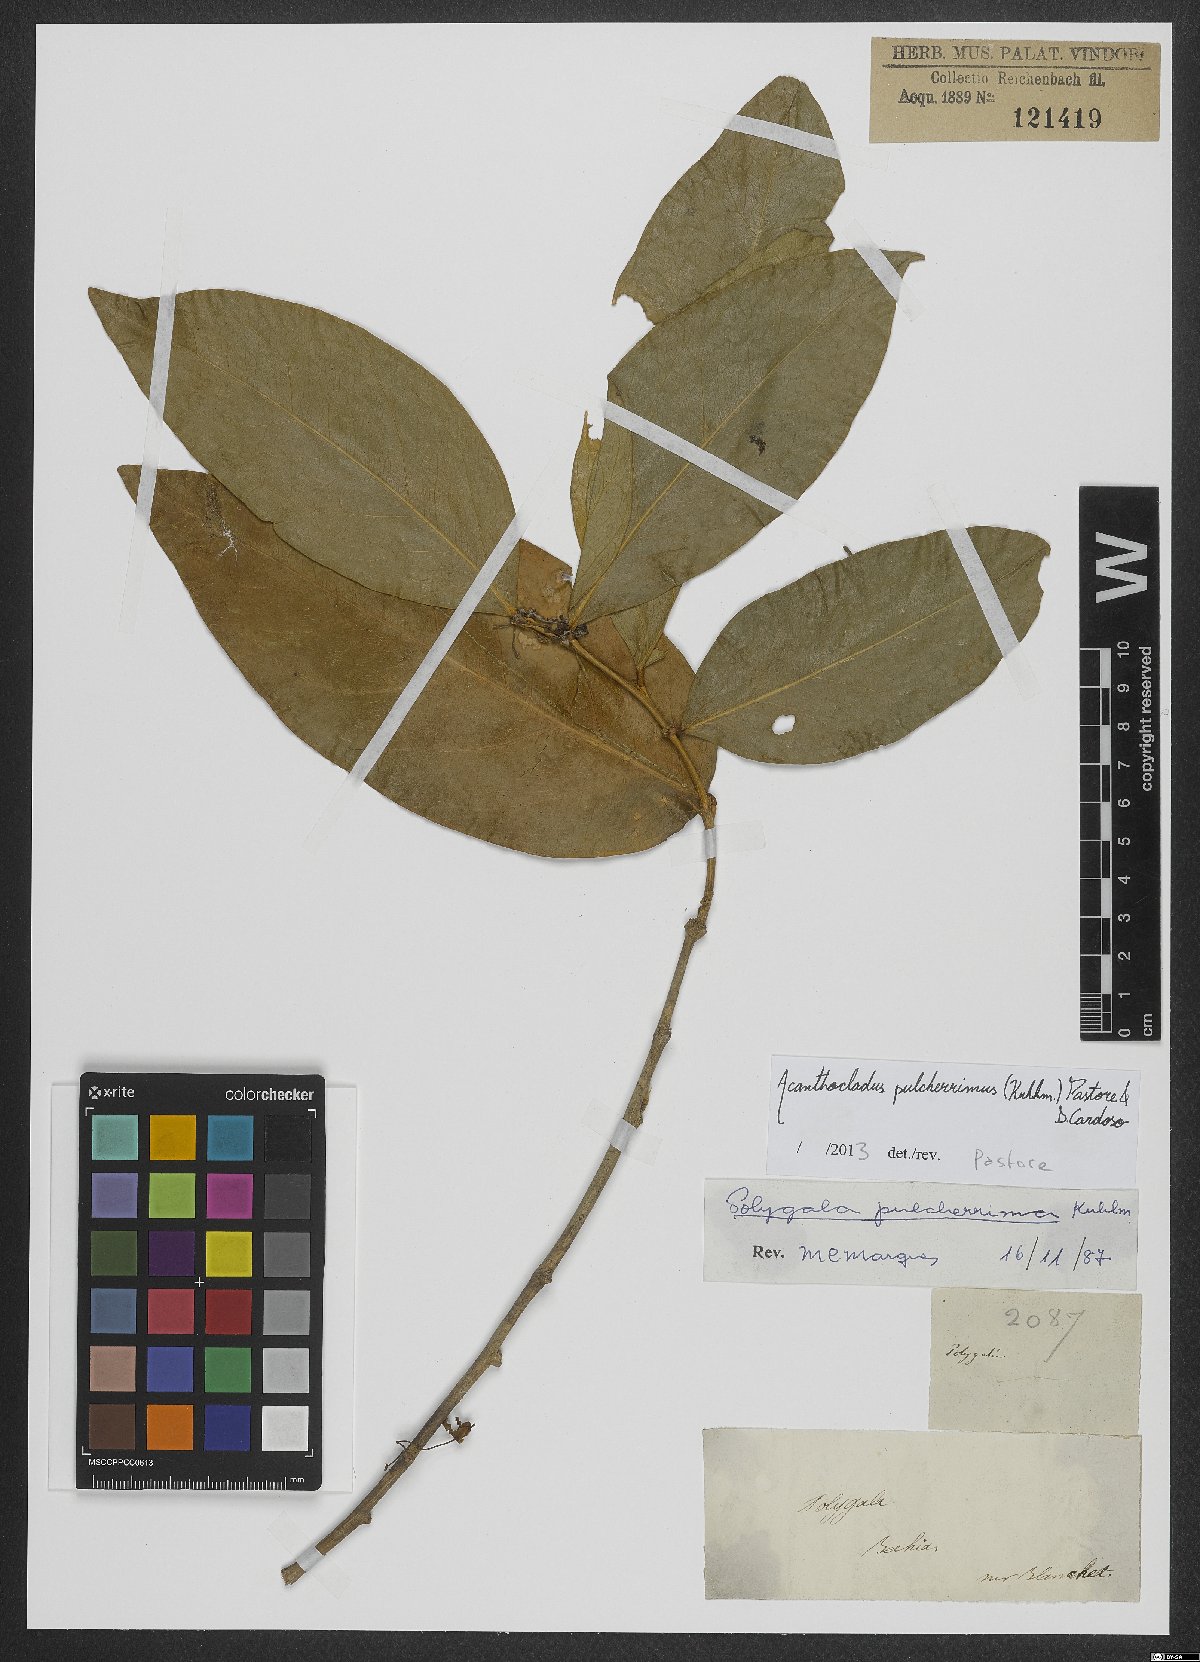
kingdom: Plantae
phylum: Tracheophyta
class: Magnoliopsida
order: Fabales
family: Polygalaceae
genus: Acanthocladus
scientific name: Acanthocladus pulcherrimus
